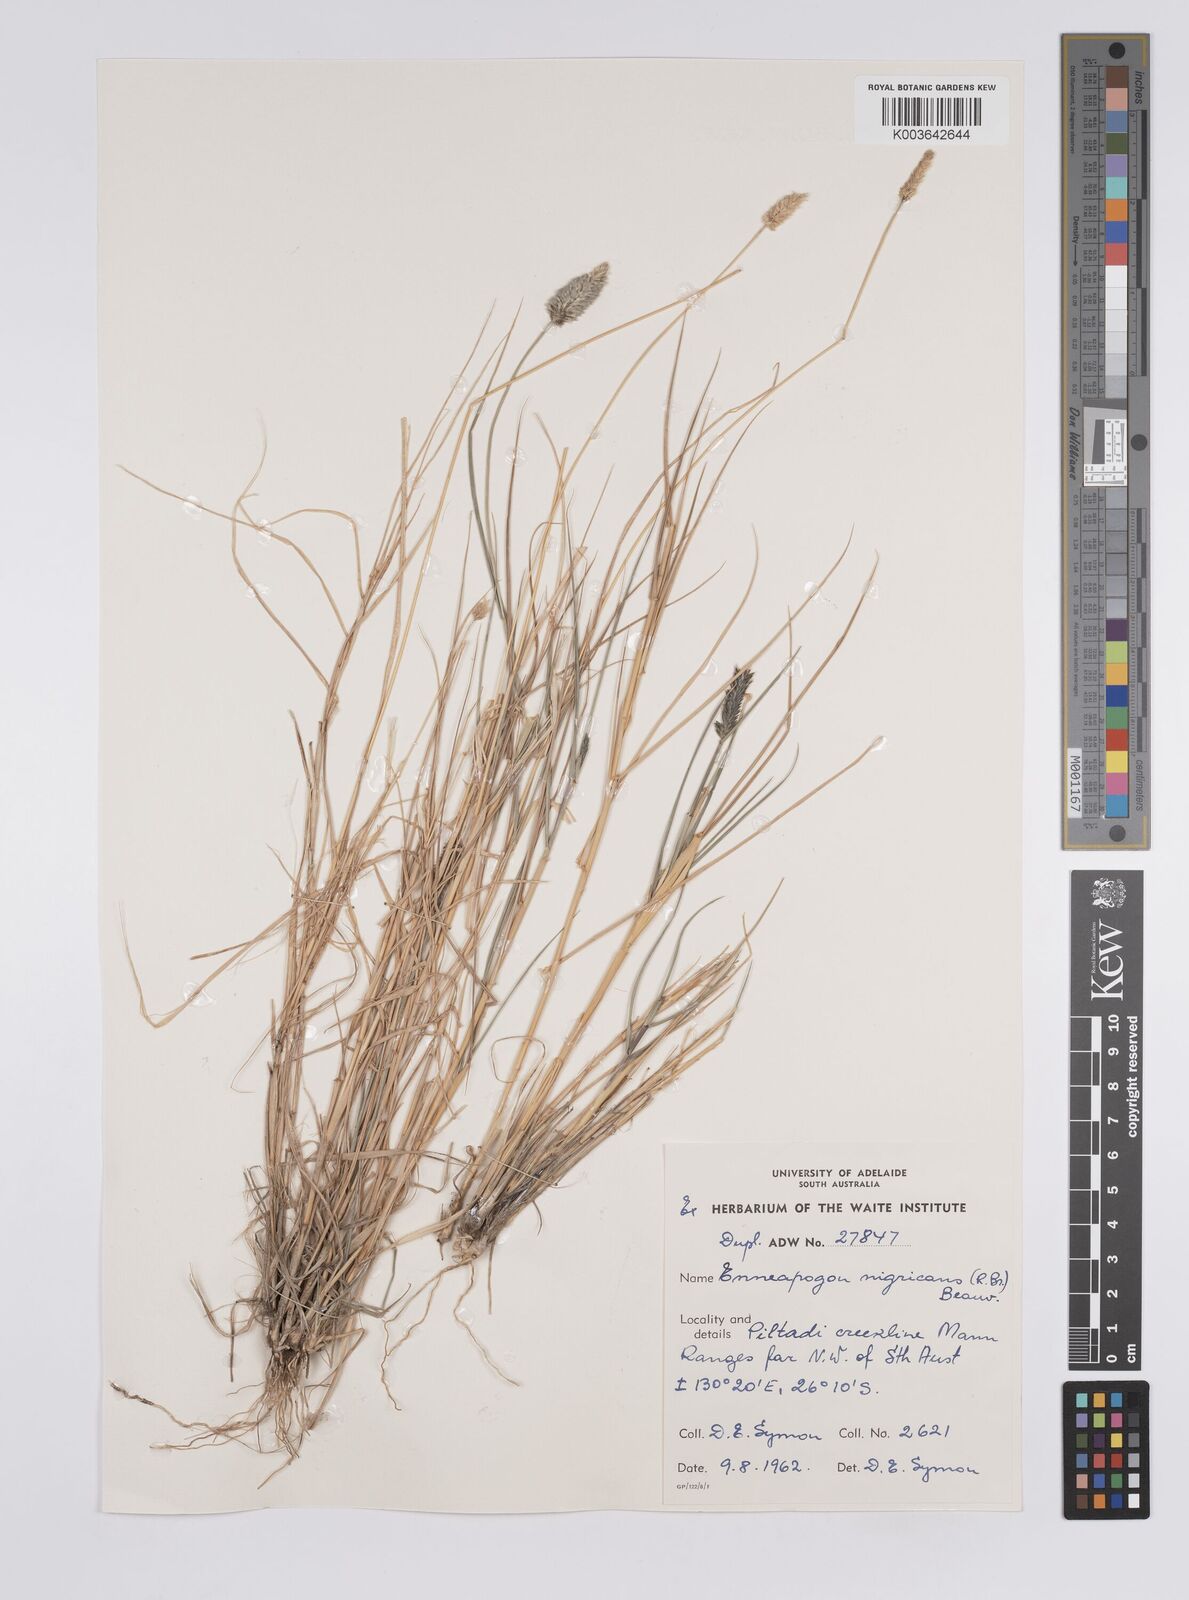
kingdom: Plantae
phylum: Tracheophyta
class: Liliopsida
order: Poales
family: Poaceae
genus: Enneapogon
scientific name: Enneapogon nigricans
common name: Pappus grass
